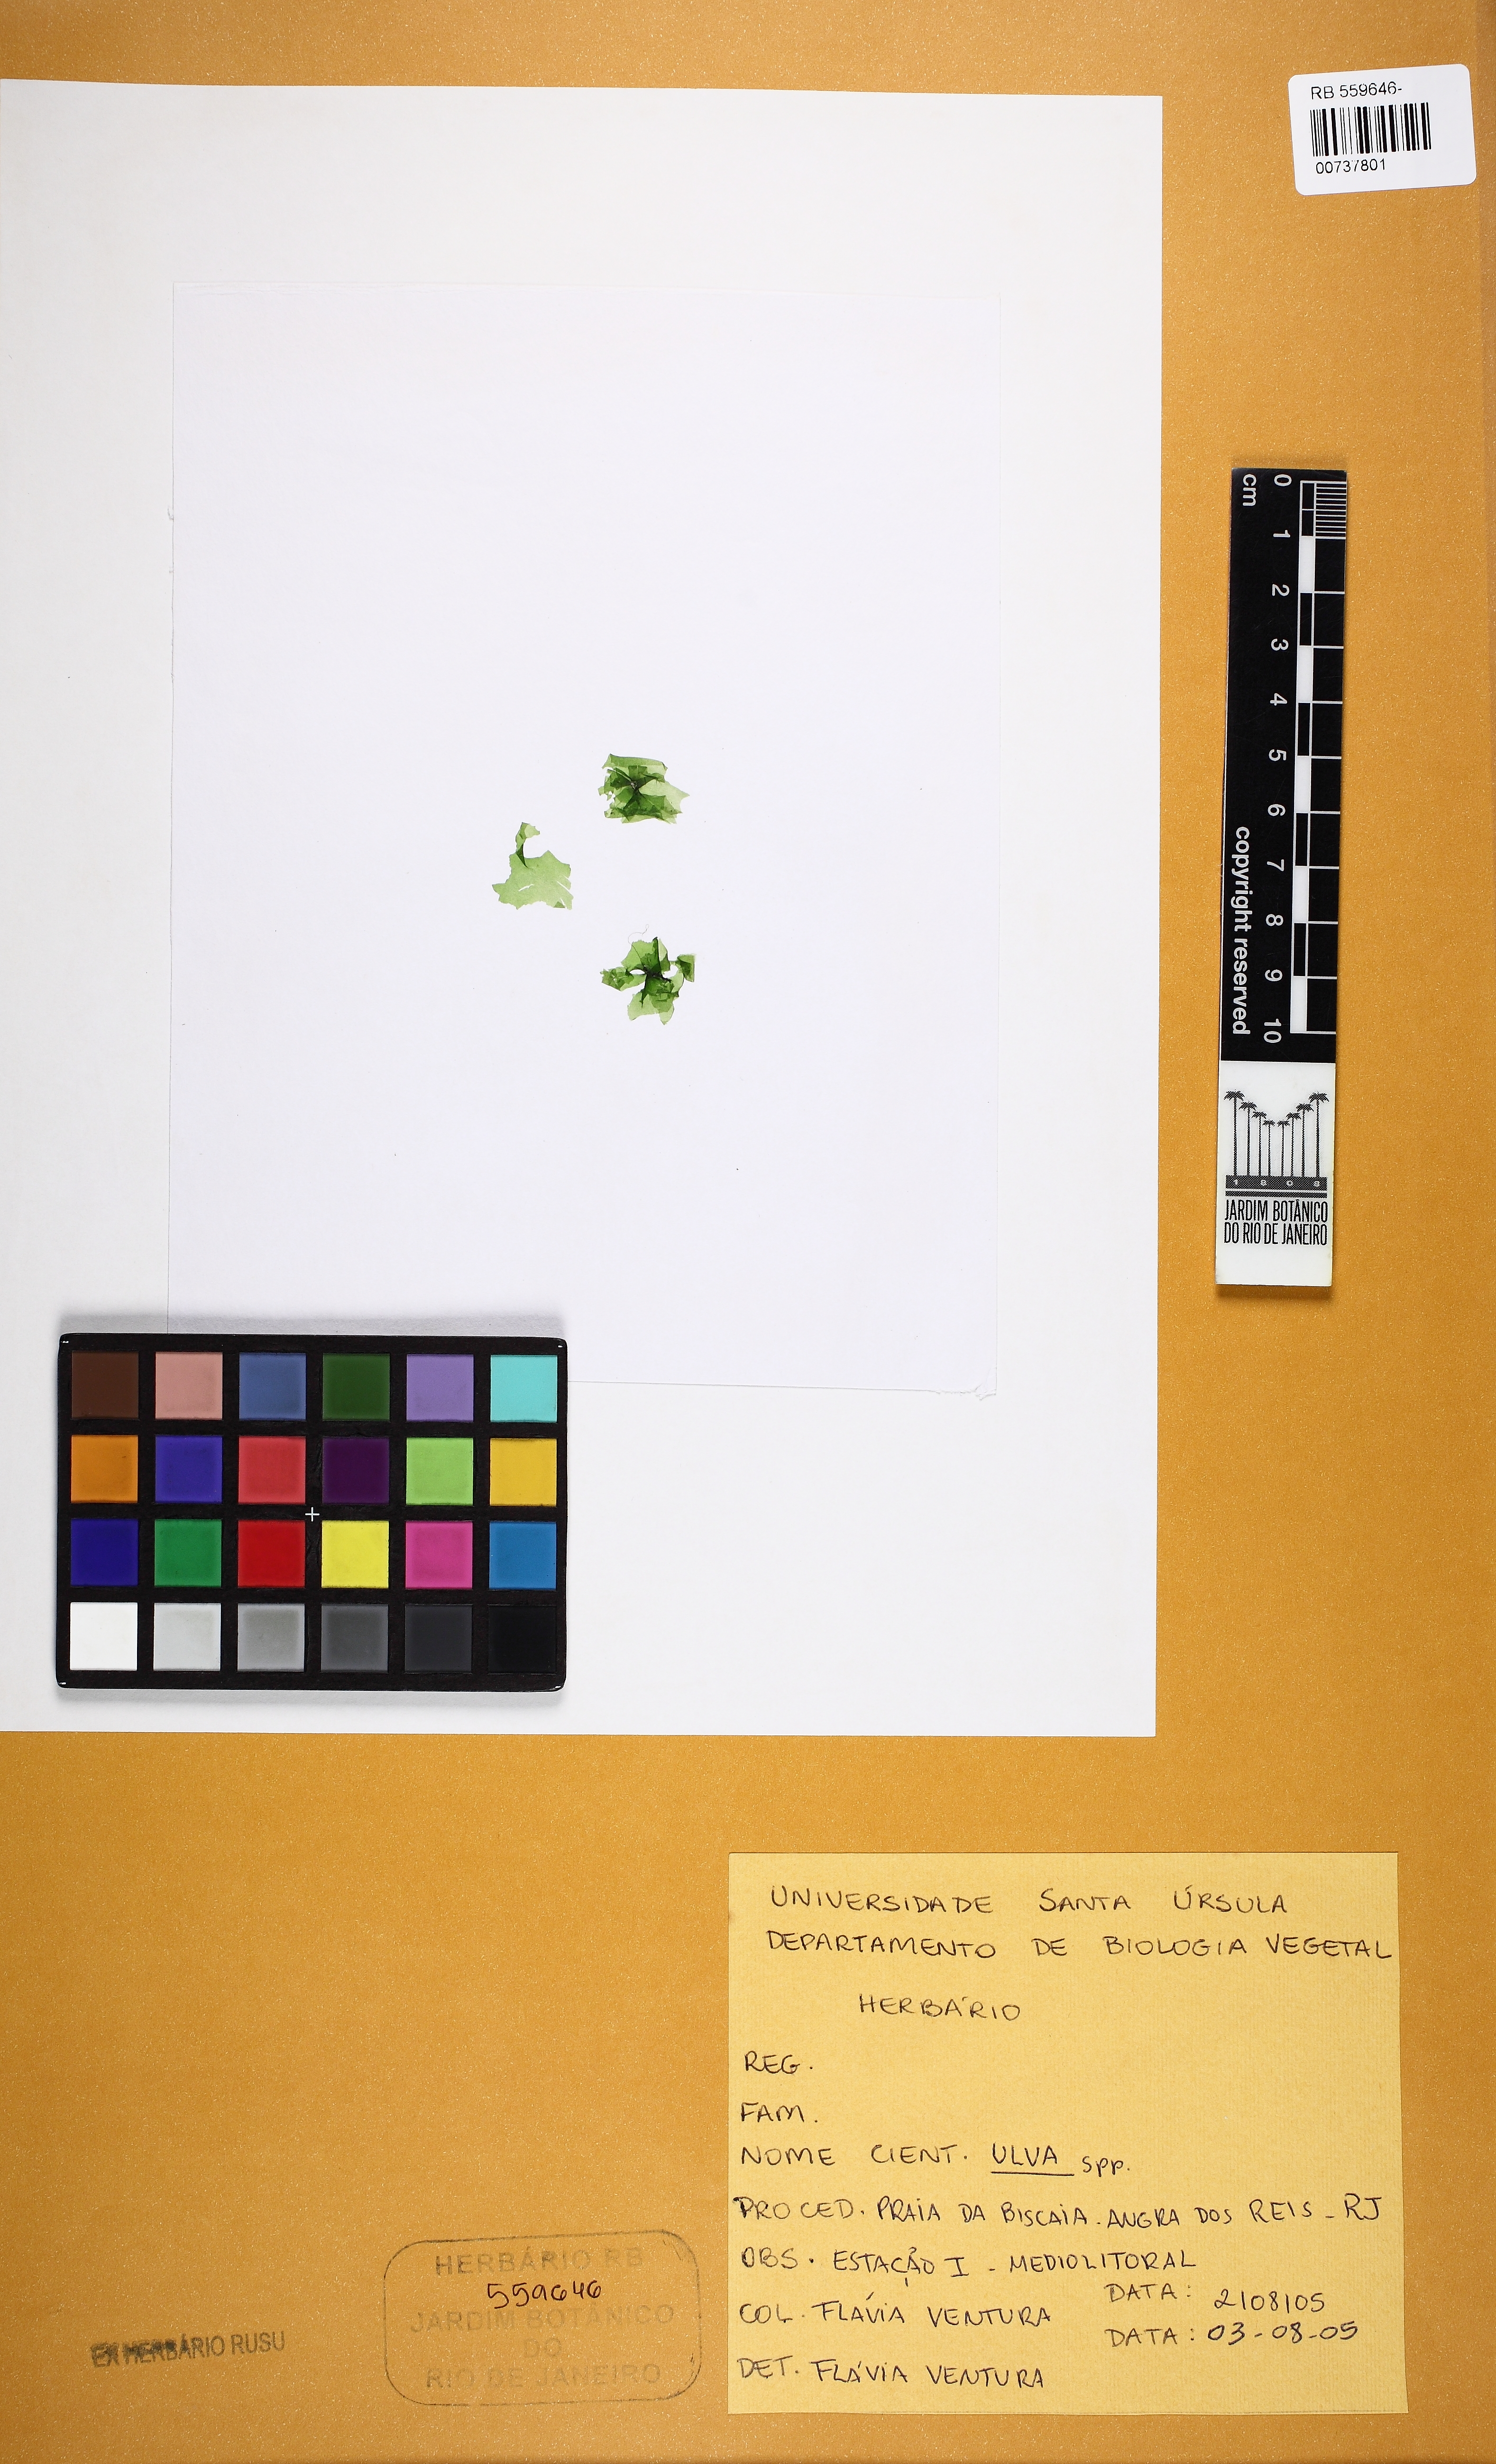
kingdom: Plantae
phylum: Chlorophyta
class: Ulvophyceae
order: Ulvales
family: Ulvaceae
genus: Ulva
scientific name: Ulva
